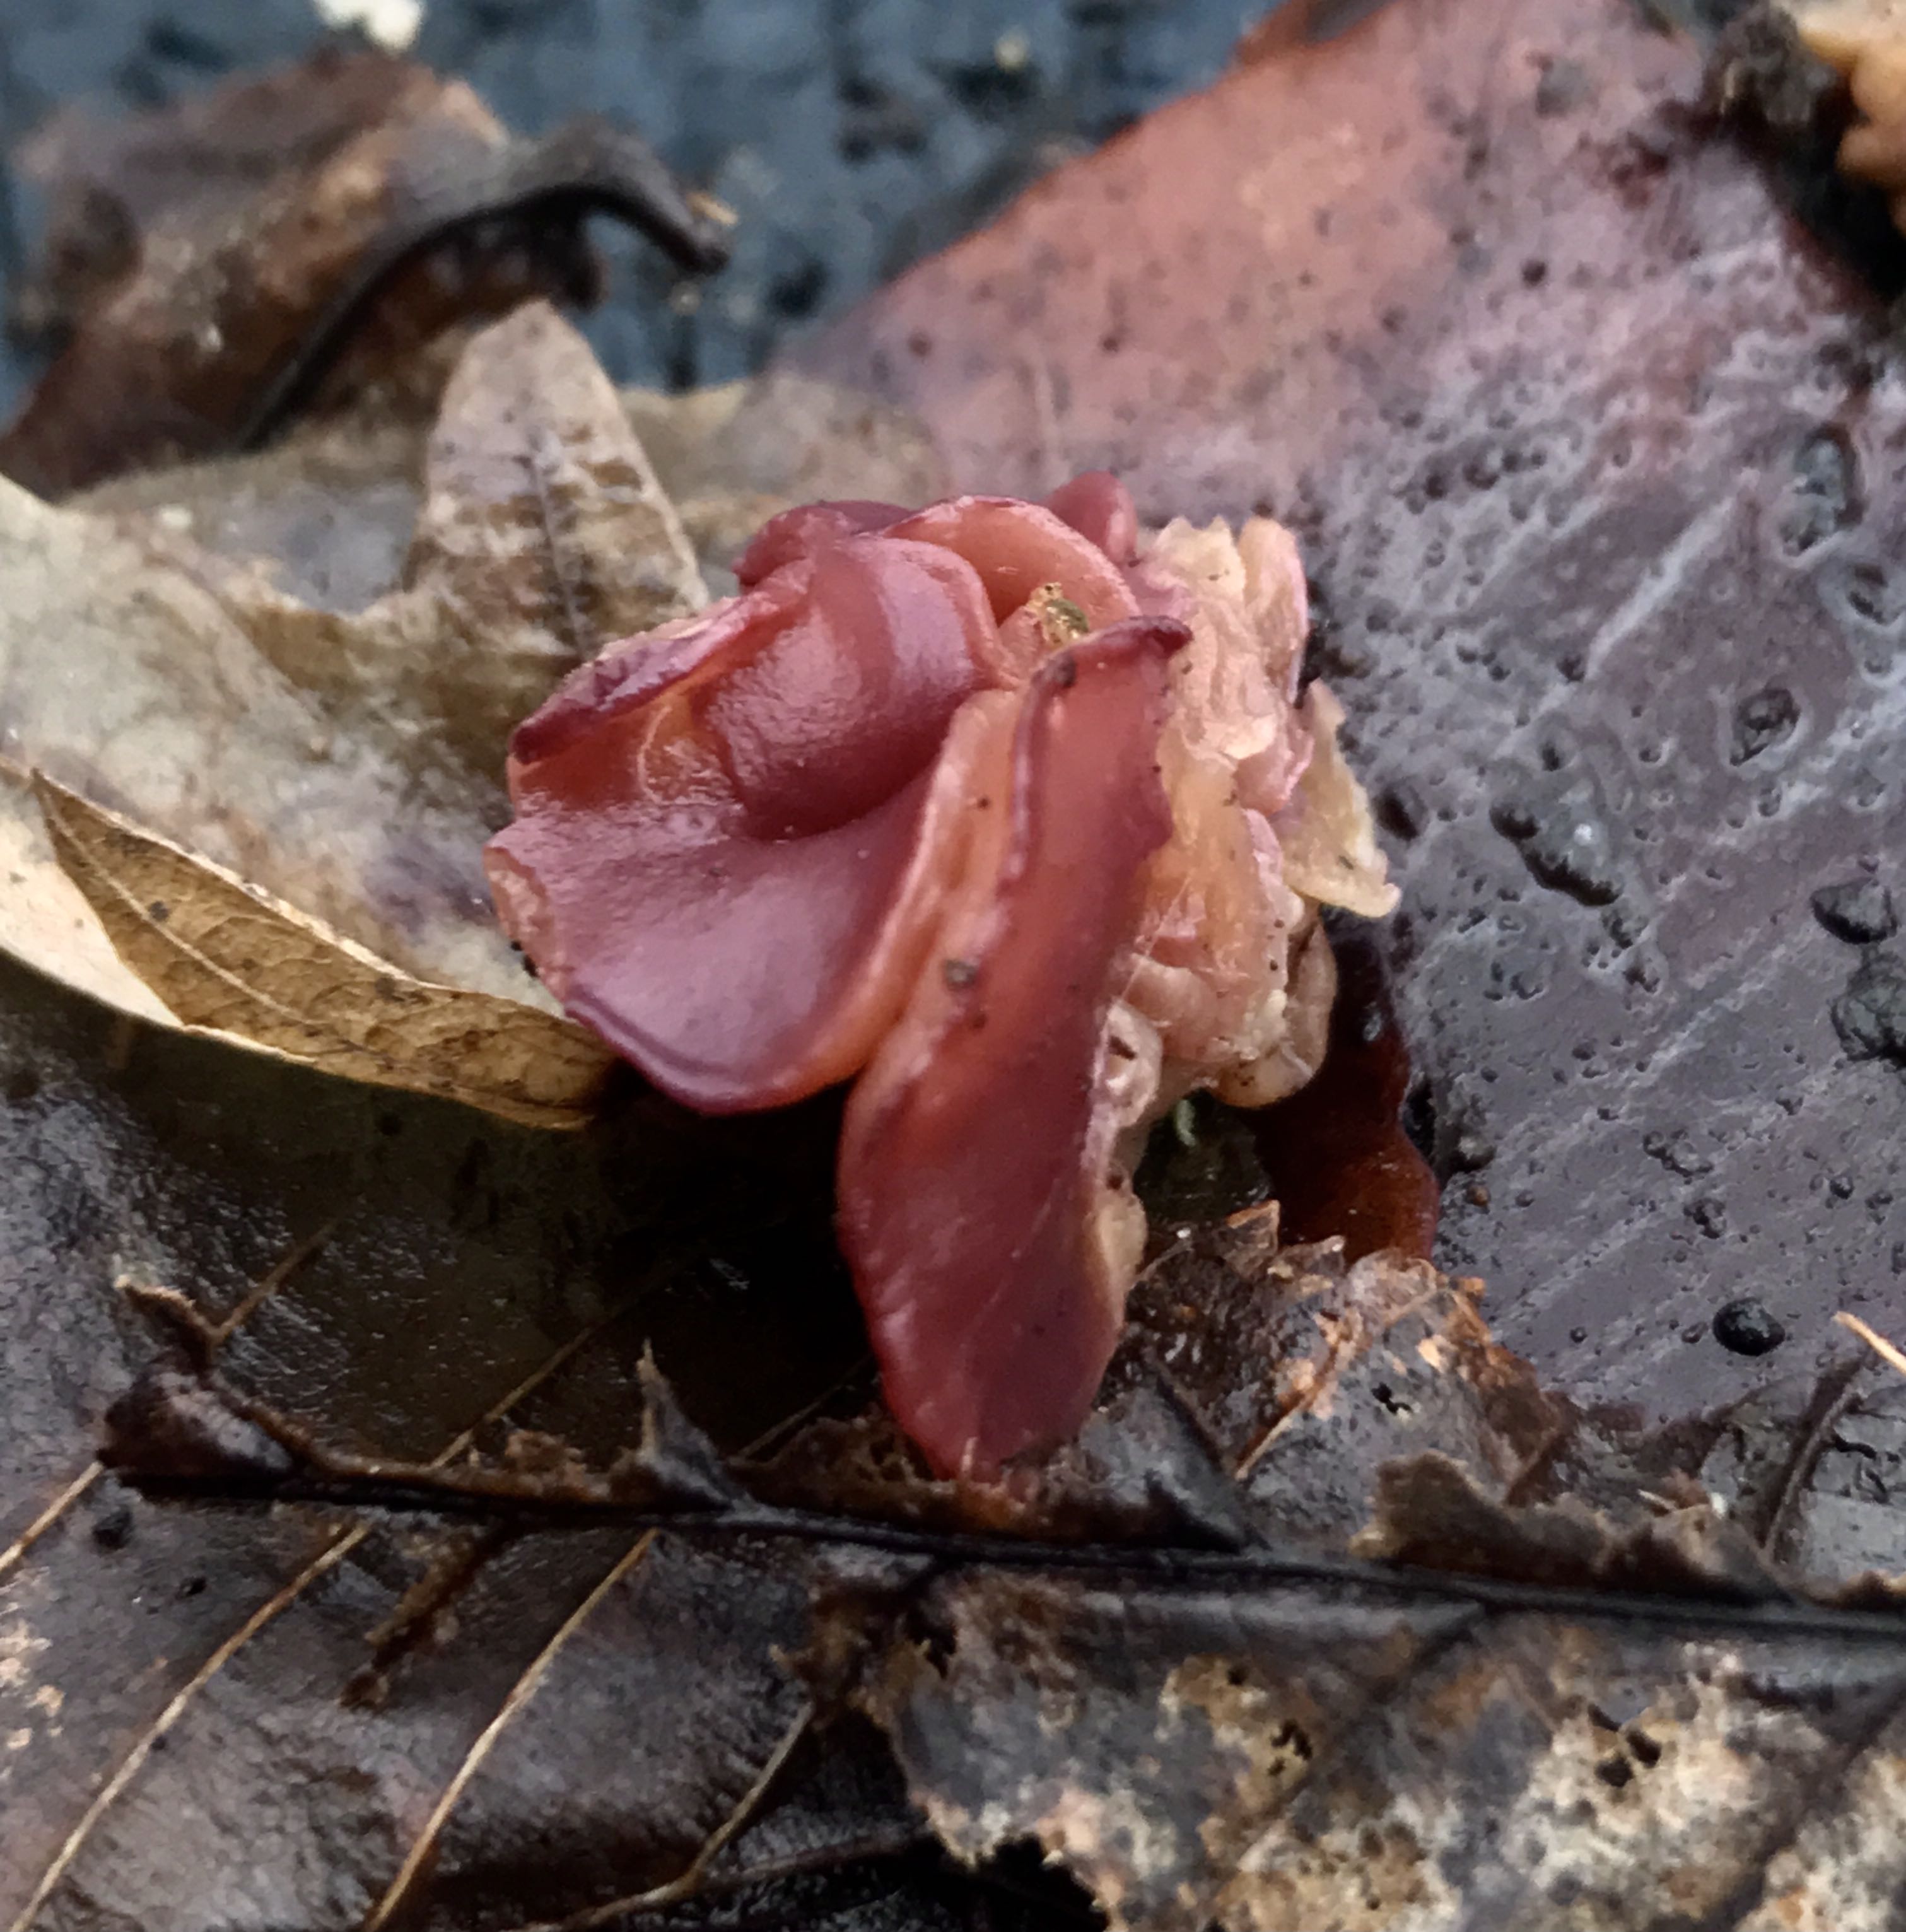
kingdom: Fungi
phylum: Ascomycota
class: Leotiomycetes
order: Helotiales
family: Gelatinodiscaceae
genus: Ascocoryne
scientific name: Ascocoryne cylichnium
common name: stor sejskive
